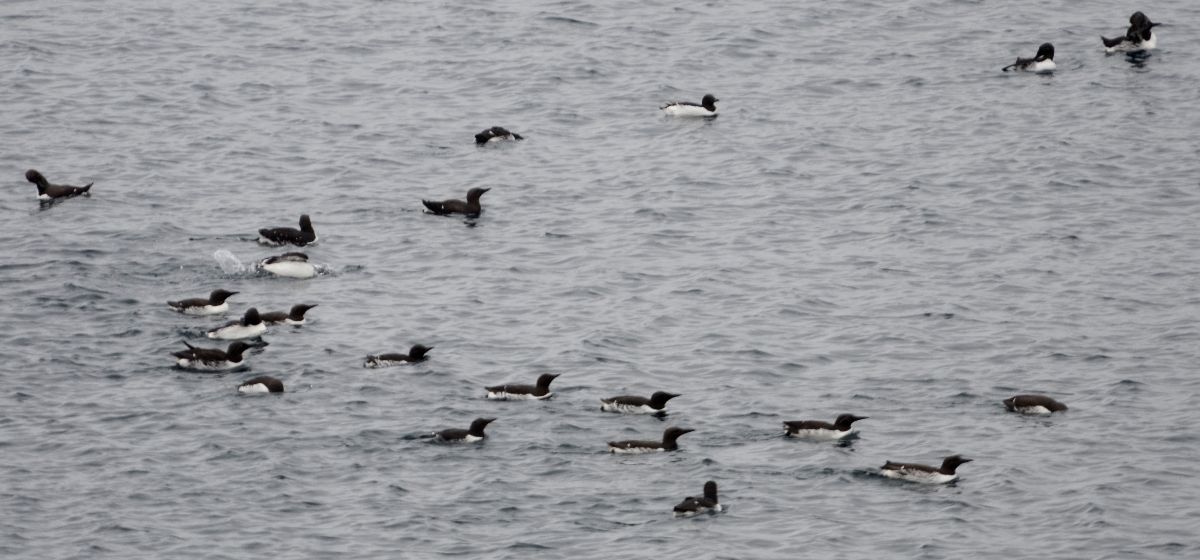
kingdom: Animalia
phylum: Chordata
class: Aves
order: Charadriiformes
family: Alcidae
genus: Uria
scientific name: Uria aalge
